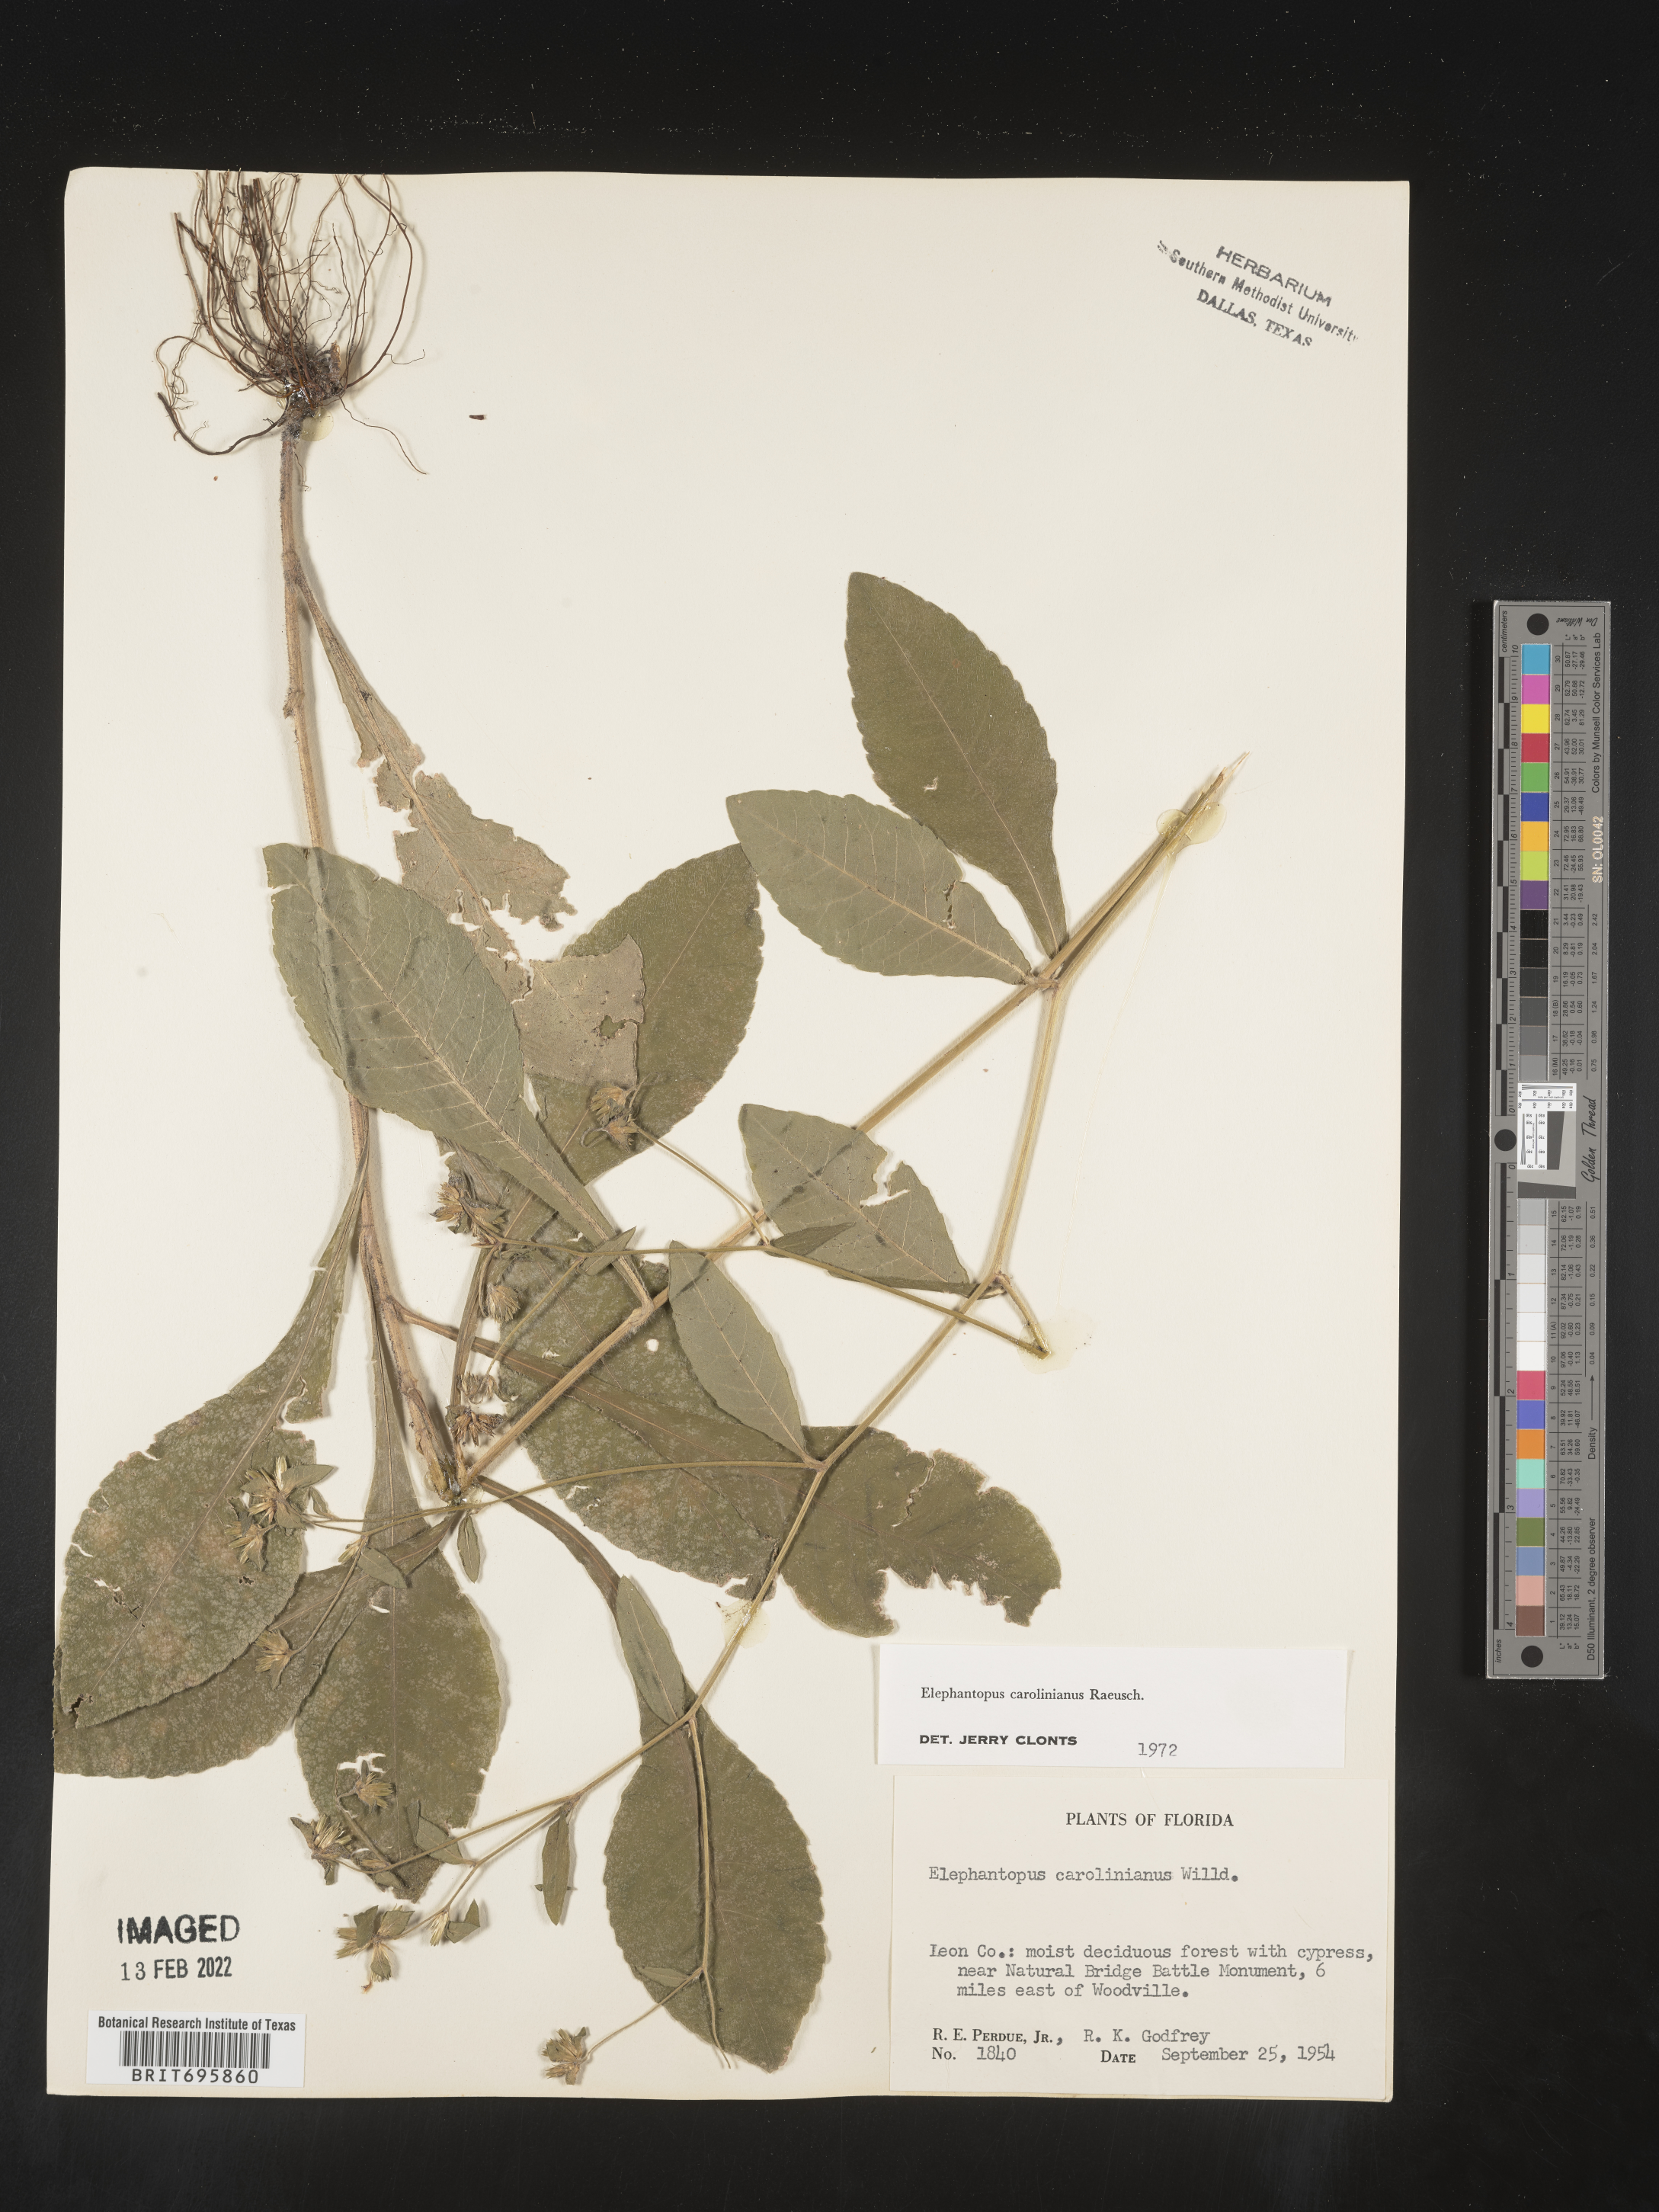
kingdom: Plantae
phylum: Tracheophyta
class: Magnoliopsida
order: Asterales
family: Asteraceae
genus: Elephantopus
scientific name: Elephantopus carolinianus
